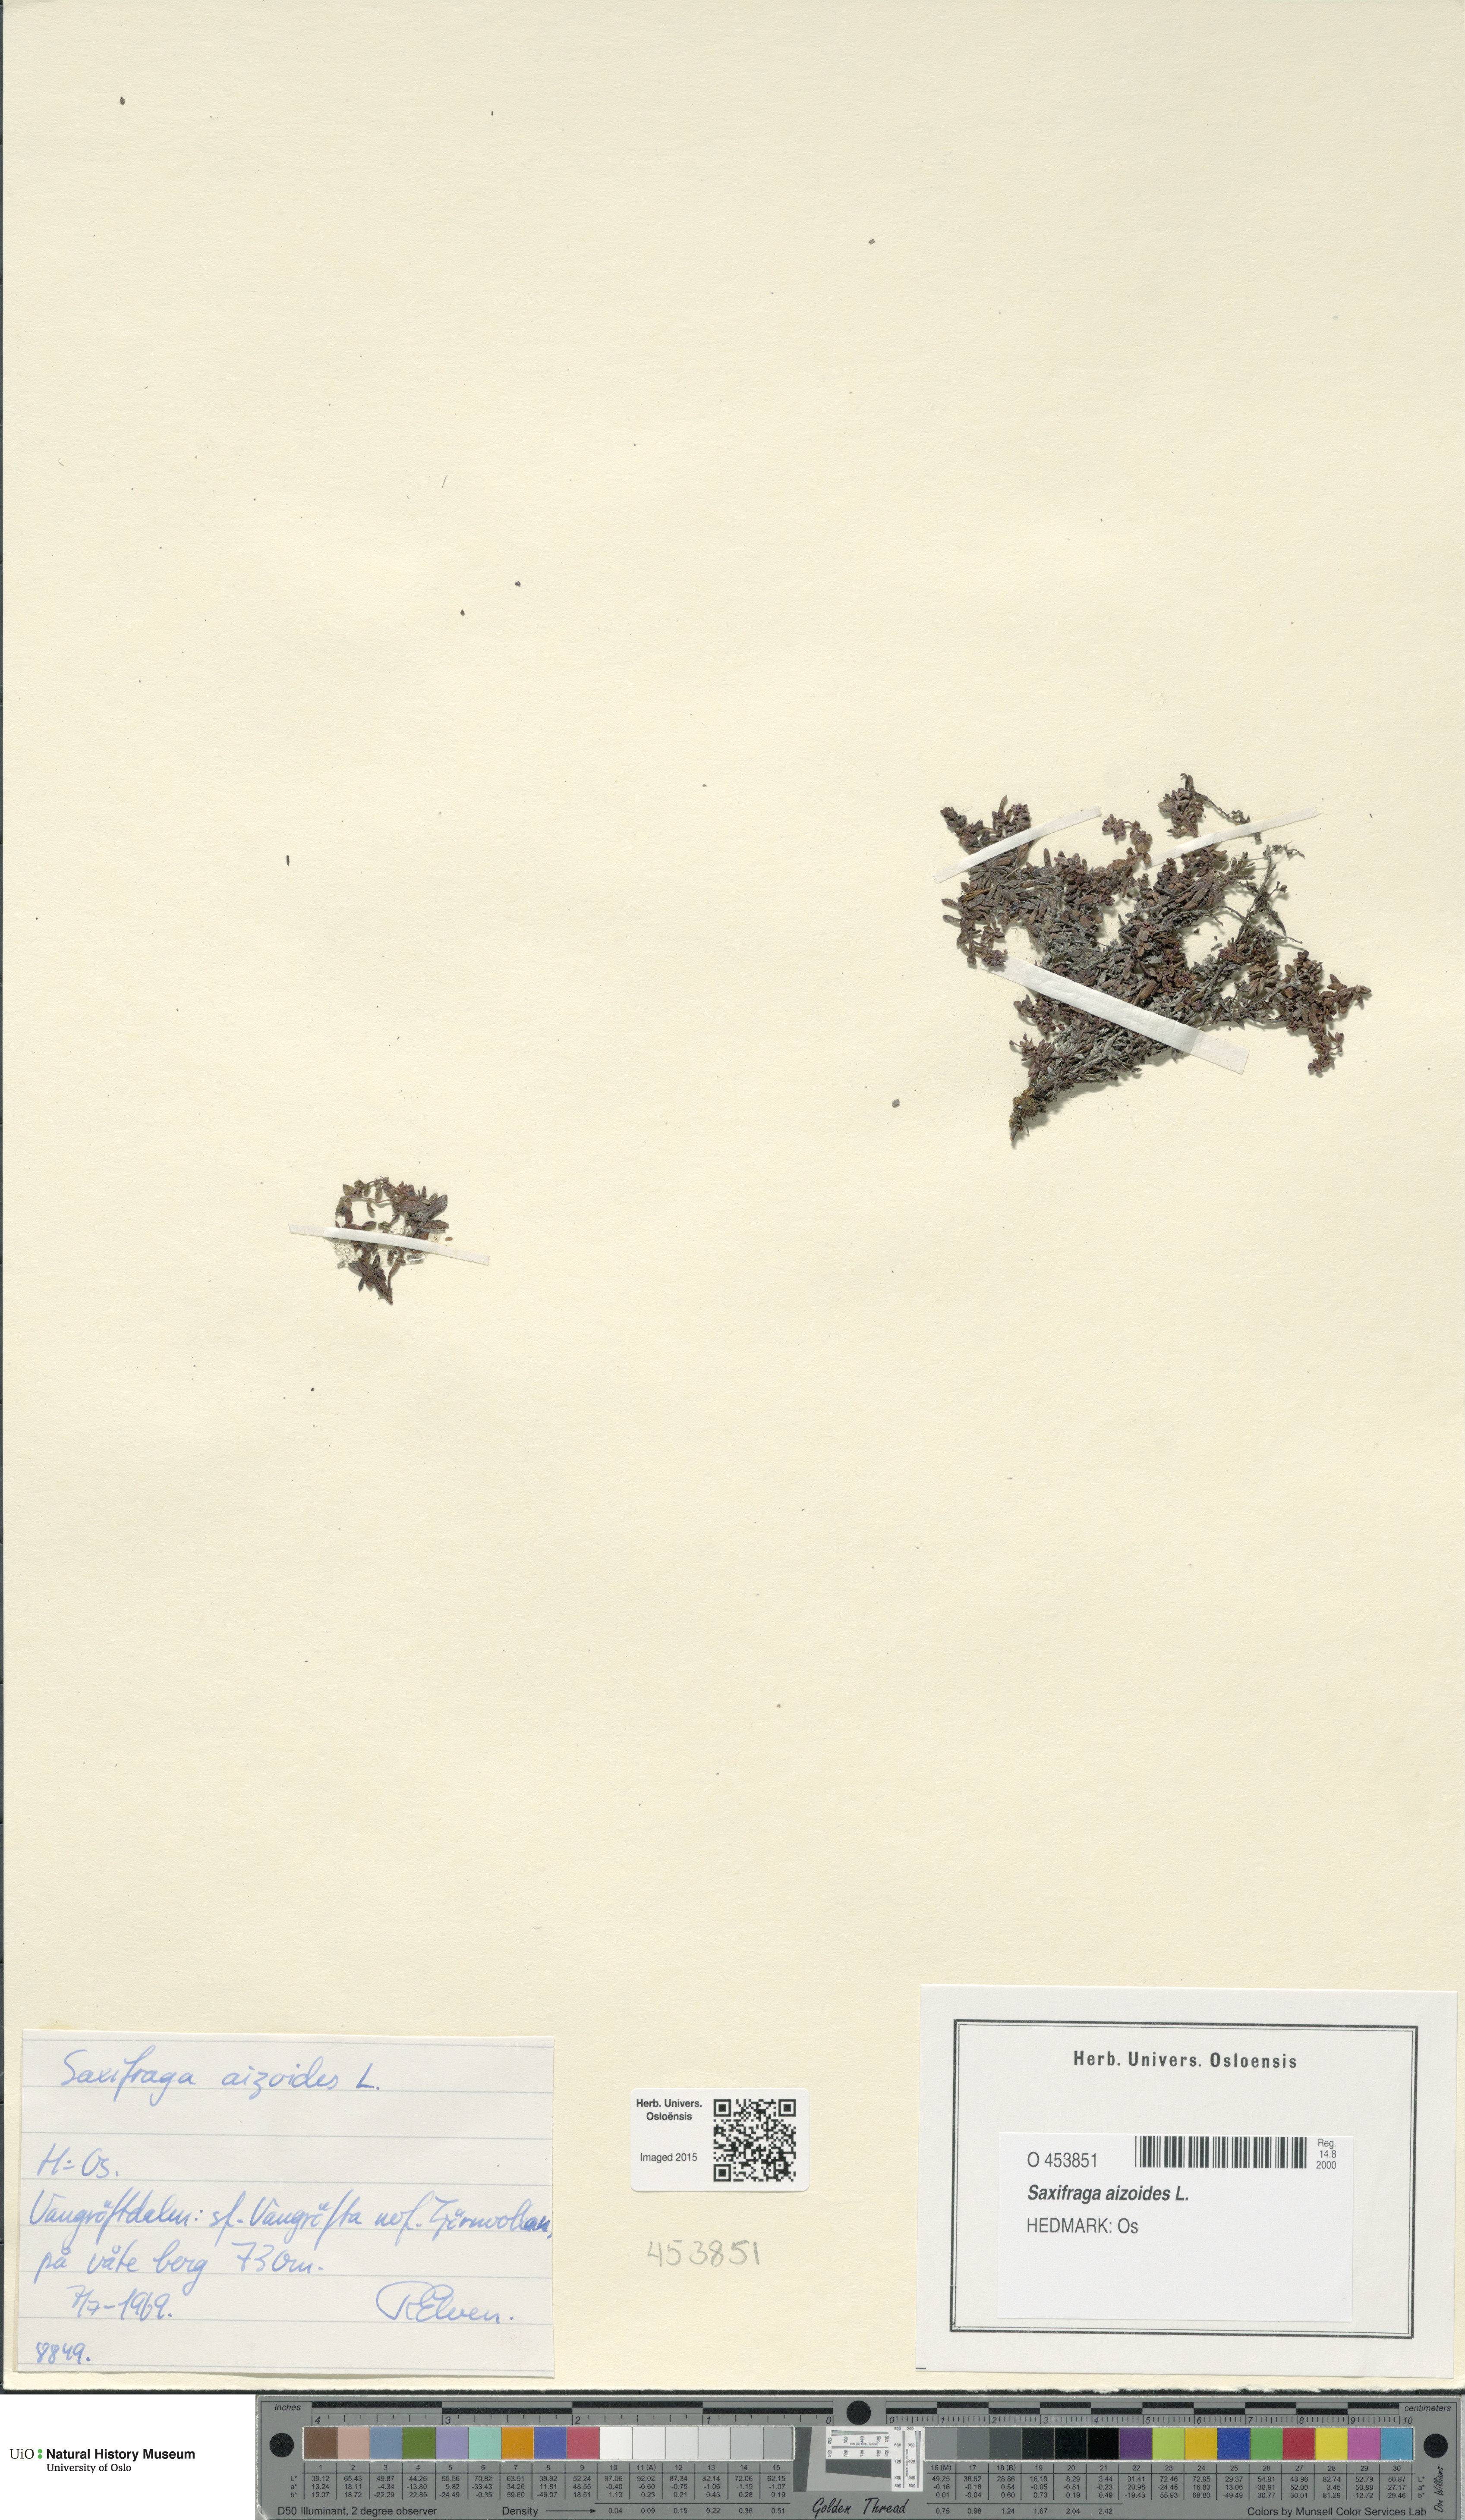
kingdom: Plantae
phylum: Tracheophyta
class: Magnoliopsida
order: Saxifragales
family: Saxifragaceae
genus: Saxifraga
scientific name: Saxifraga aizoides
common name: Yellow mountain saxifrage
